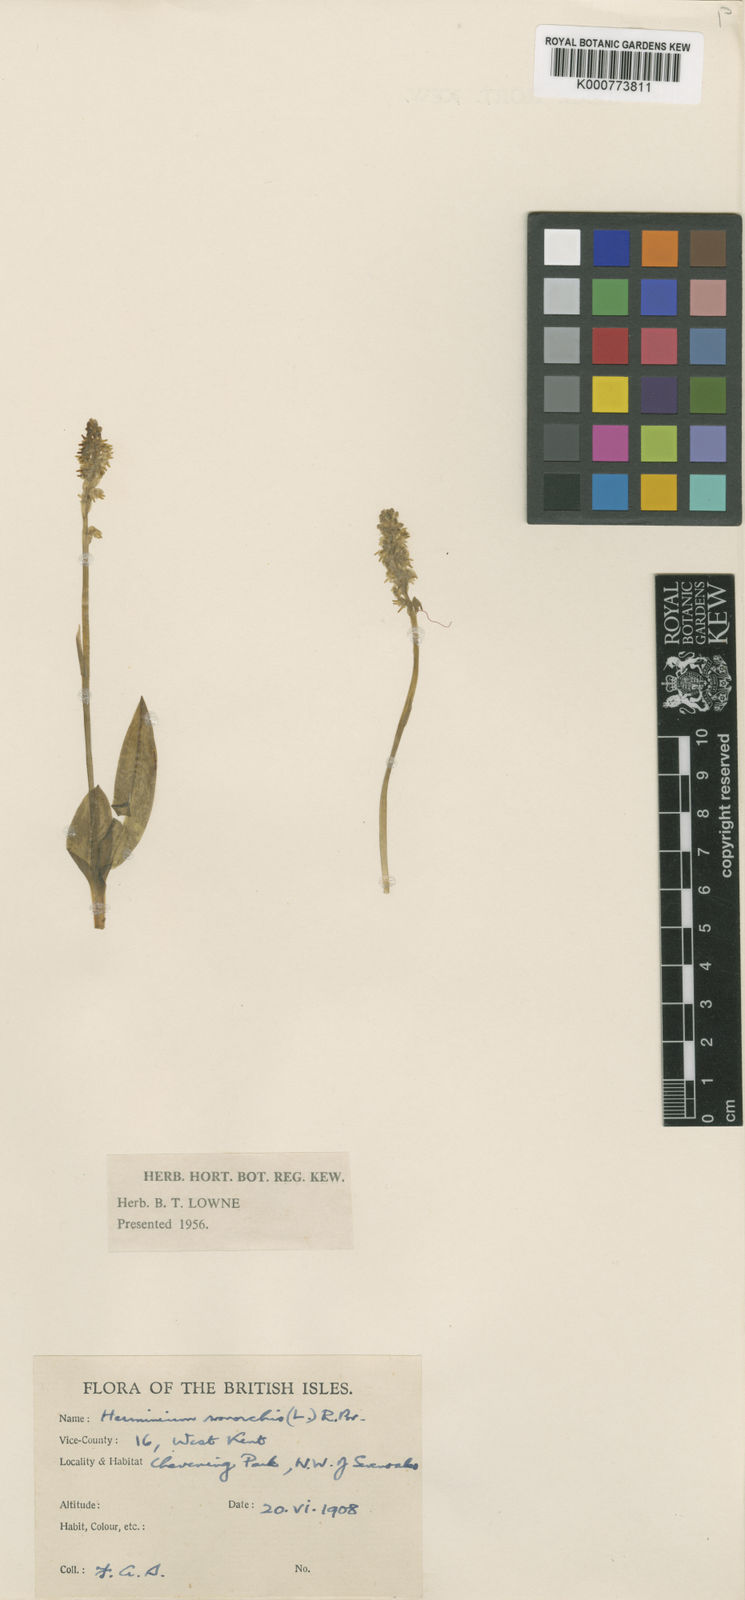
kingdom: Plantae
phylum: Tracheophyta
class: Liliopsida
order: Asparagales
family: Orchidaceae
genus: Herminium
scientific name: Herminium monorchis
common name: Musk orchid
